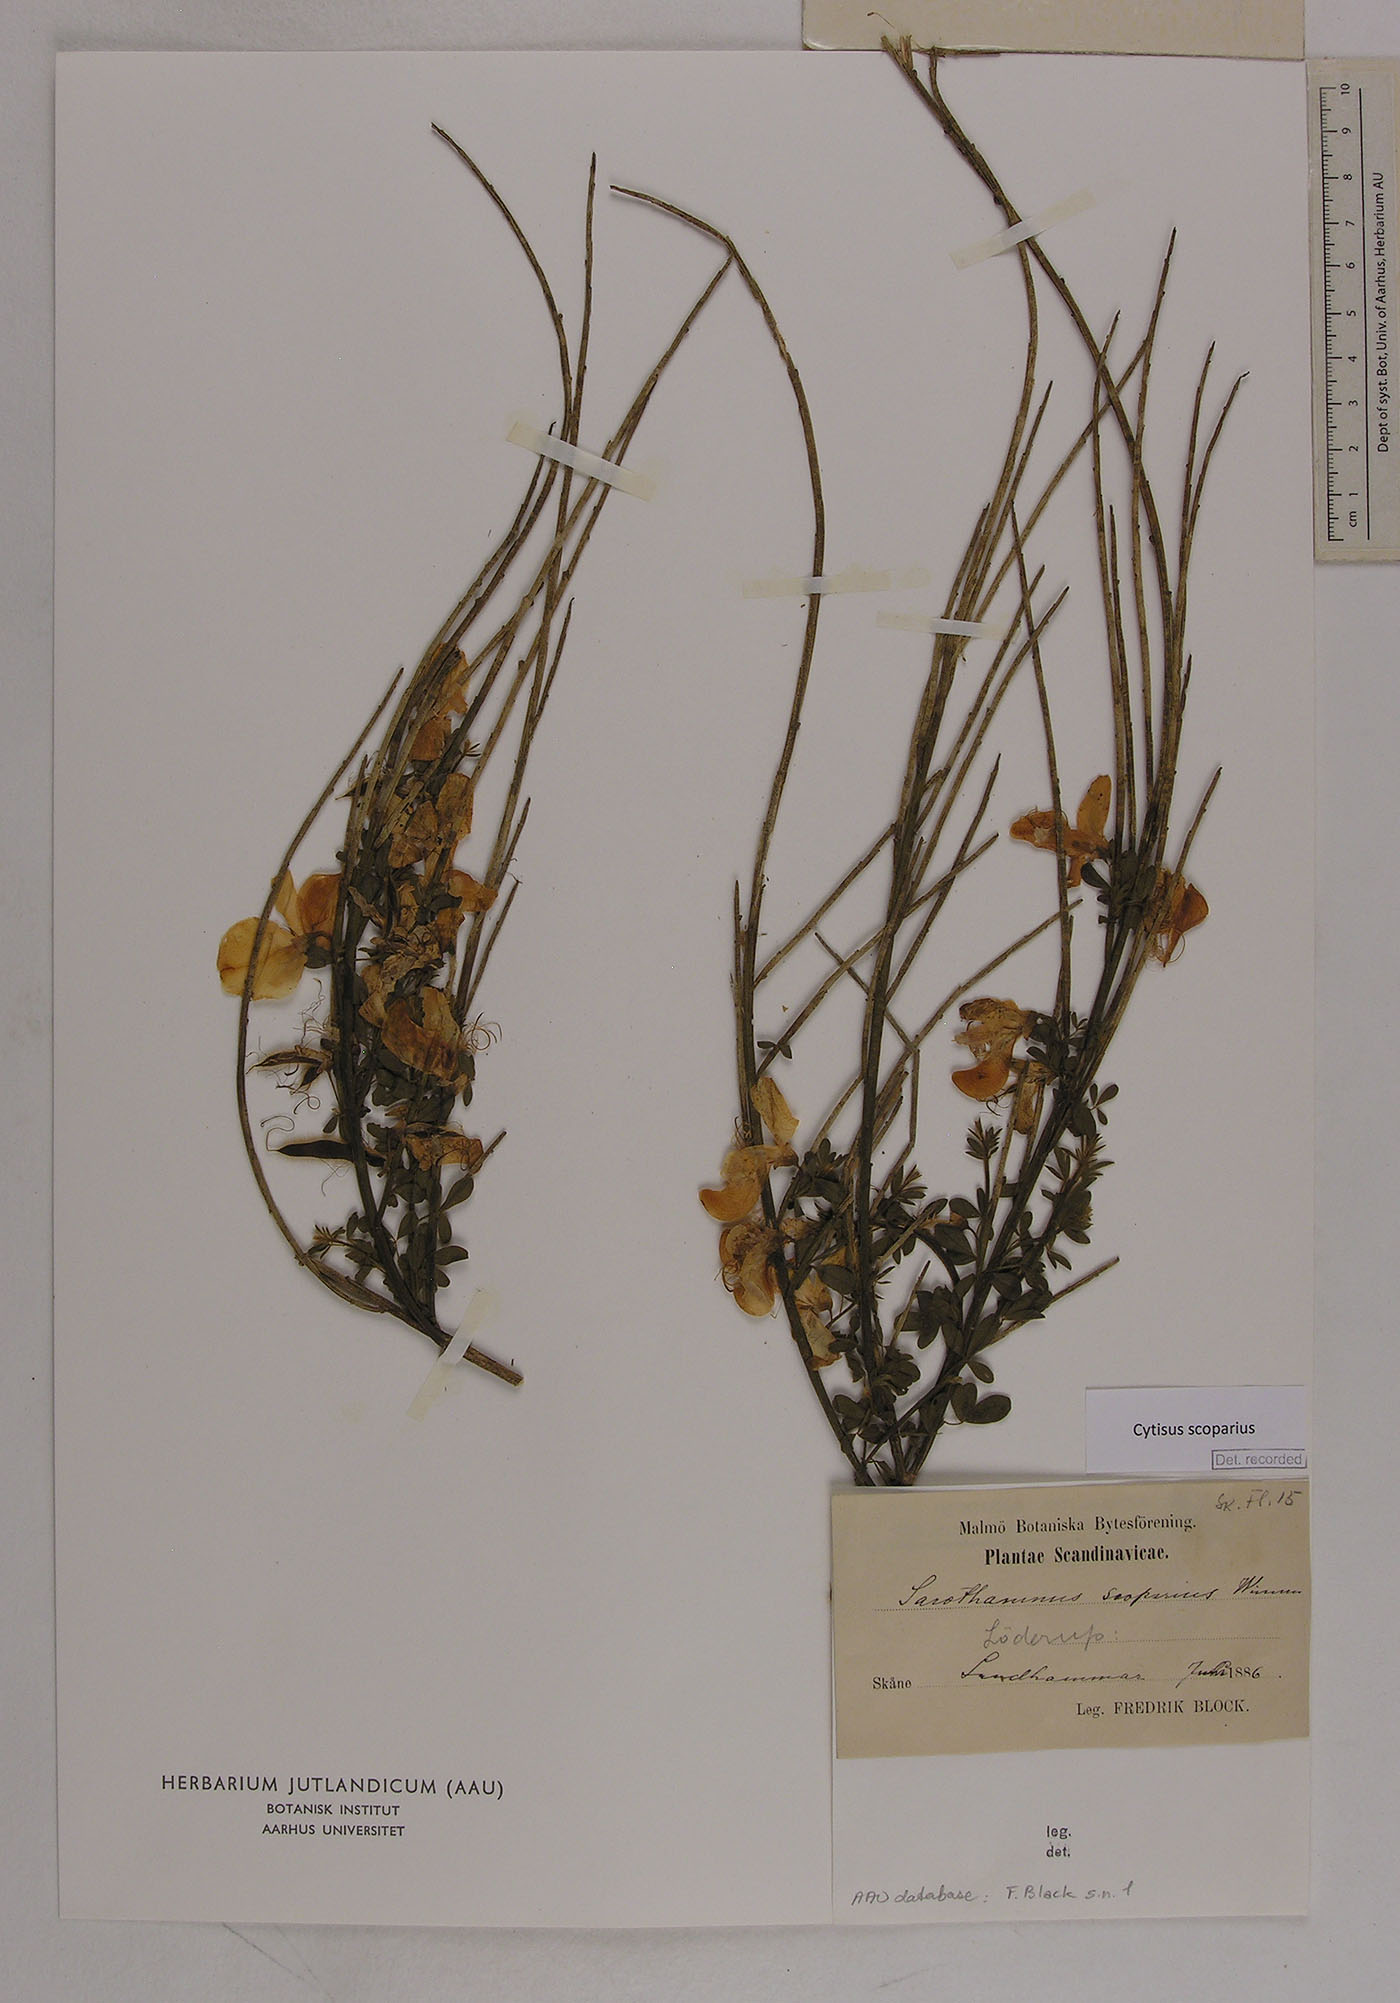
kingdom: Plantae
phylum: Tracheophyta
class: Magnoliopsida
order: Fabales
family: Fabaceae
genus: Cytisus
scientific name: Cytisus scoparius
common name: Scotch broom
